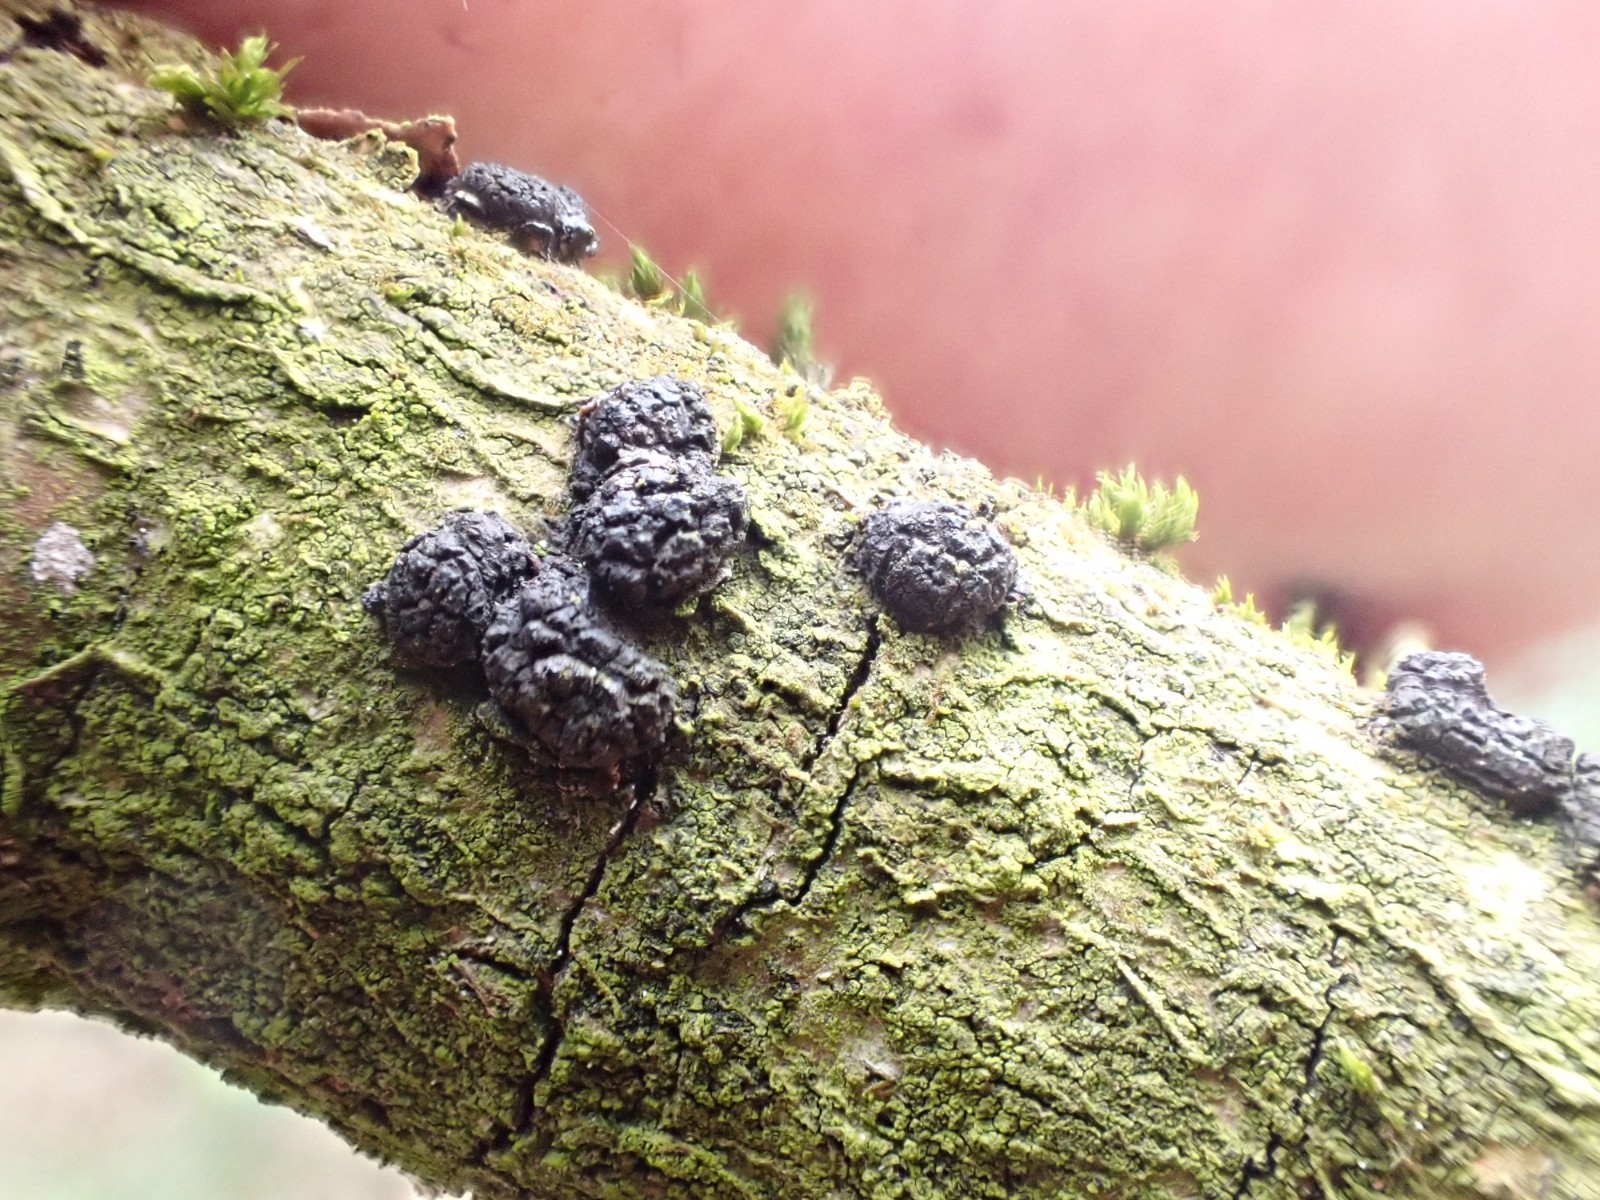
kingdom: Fungi
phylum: Ascomycota
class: Sordariomycetes
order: Xylariales
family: Diatrypaceae
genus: Diatrypella
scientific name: Diatrypella quercina
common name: ege-kulskorpe
